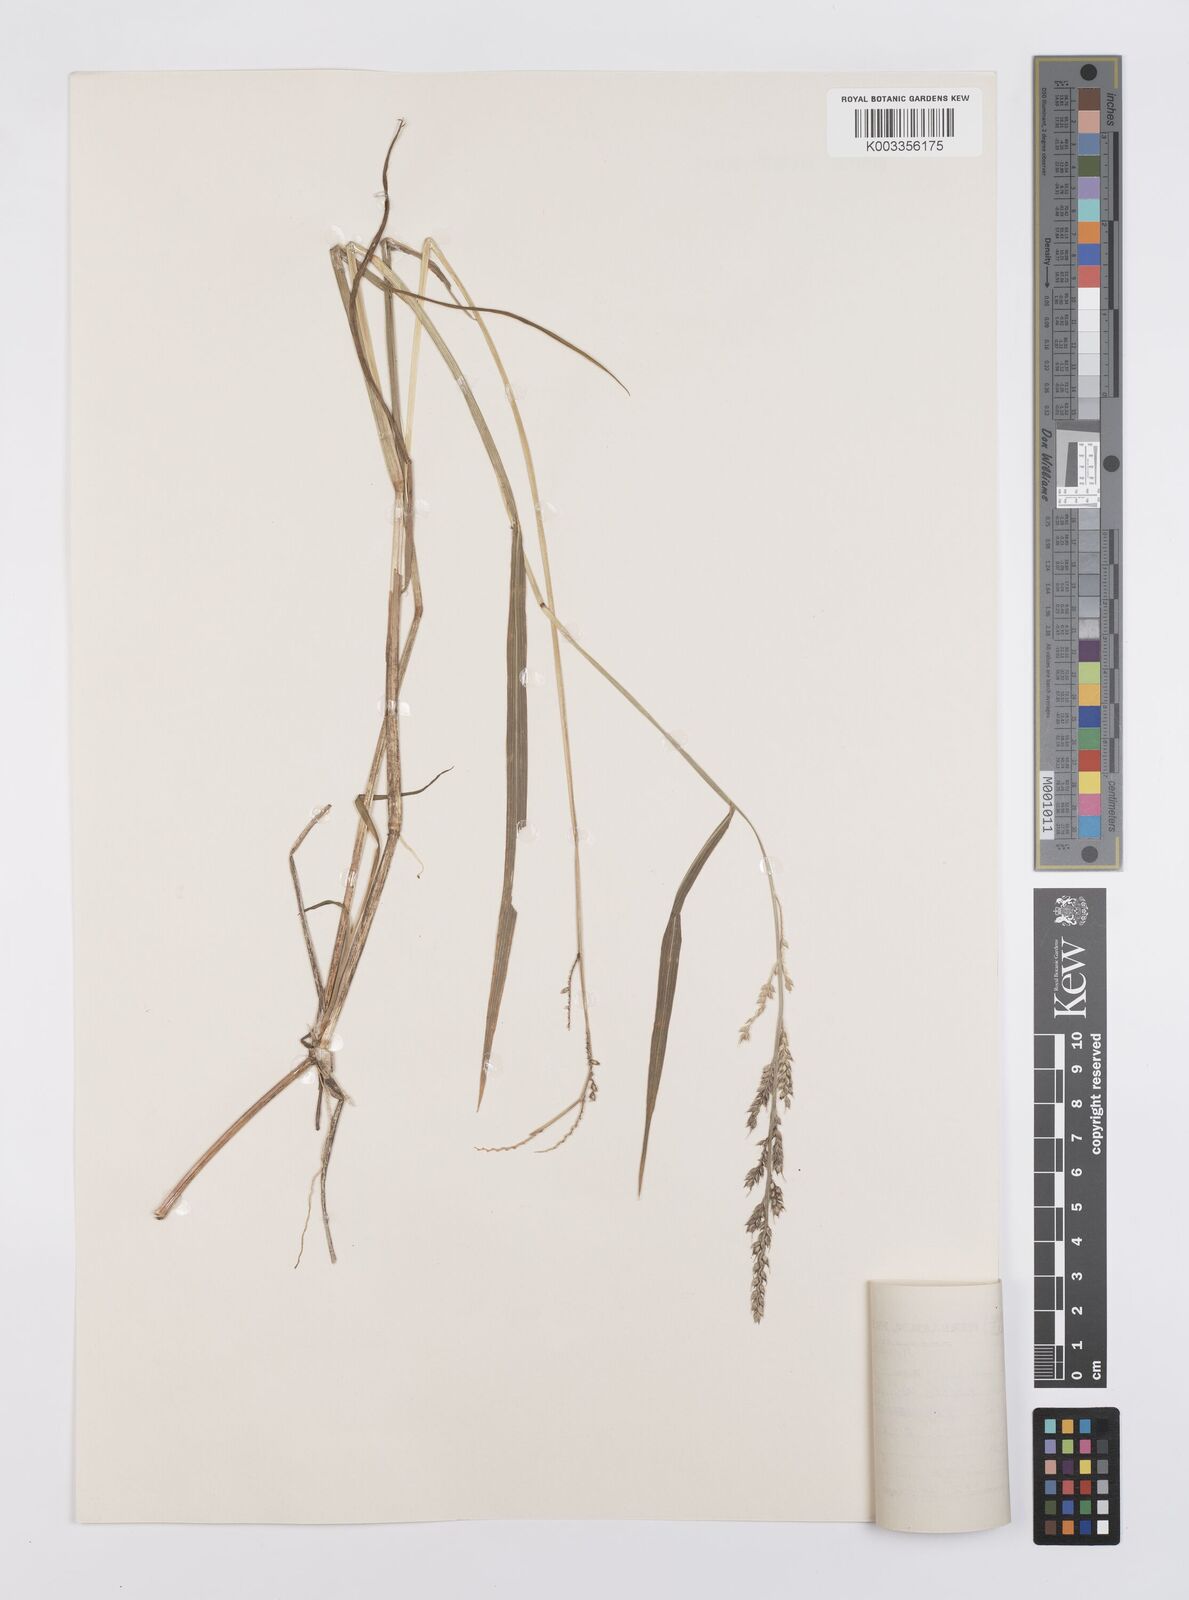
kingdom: Plantae
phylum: Tracheophyta
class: Liliopsida
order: Poales
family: Poaceae
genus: Echinochloa
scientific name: Echinochloa ugandensis
